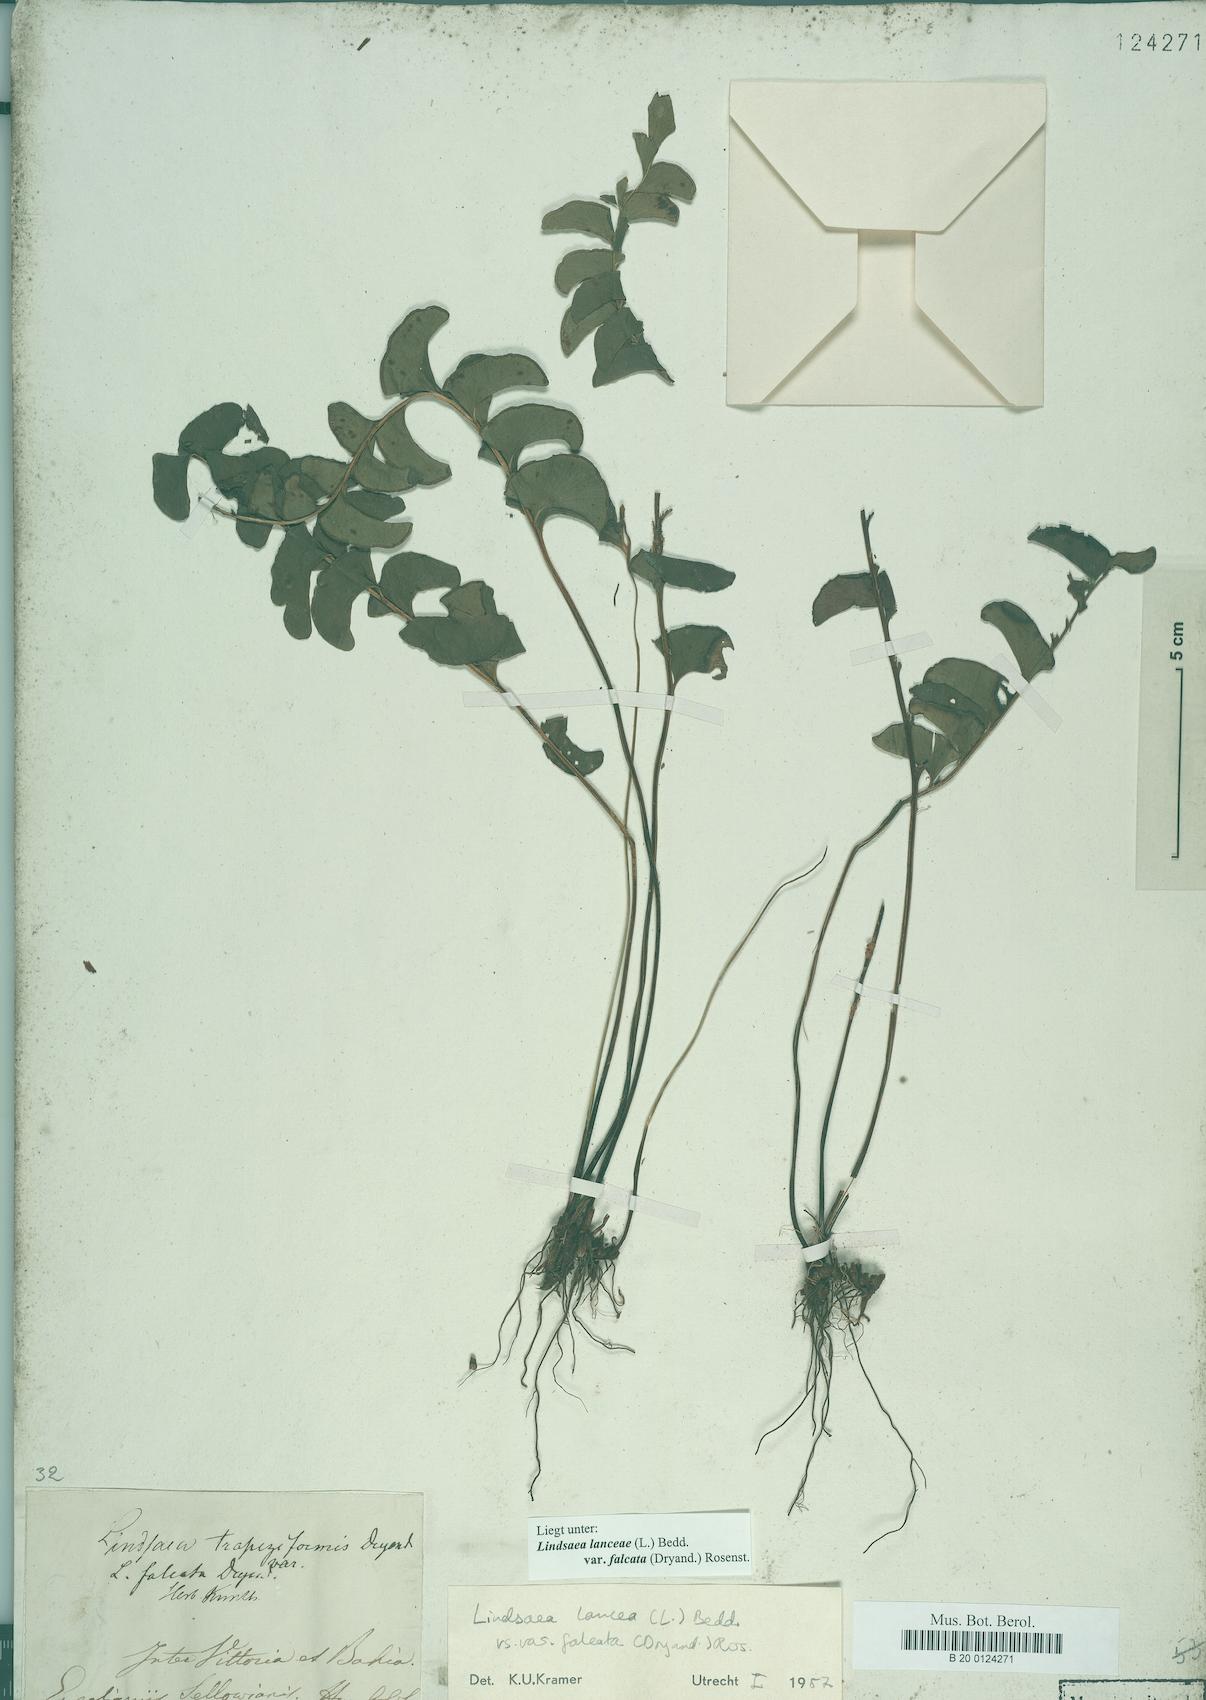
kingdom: Plantae
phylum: Tracheophyta
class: Polypodiopsida
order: Polypodiales
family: Lindsaeaceae
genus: Lindsaea
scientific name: Lindsaea falcata
